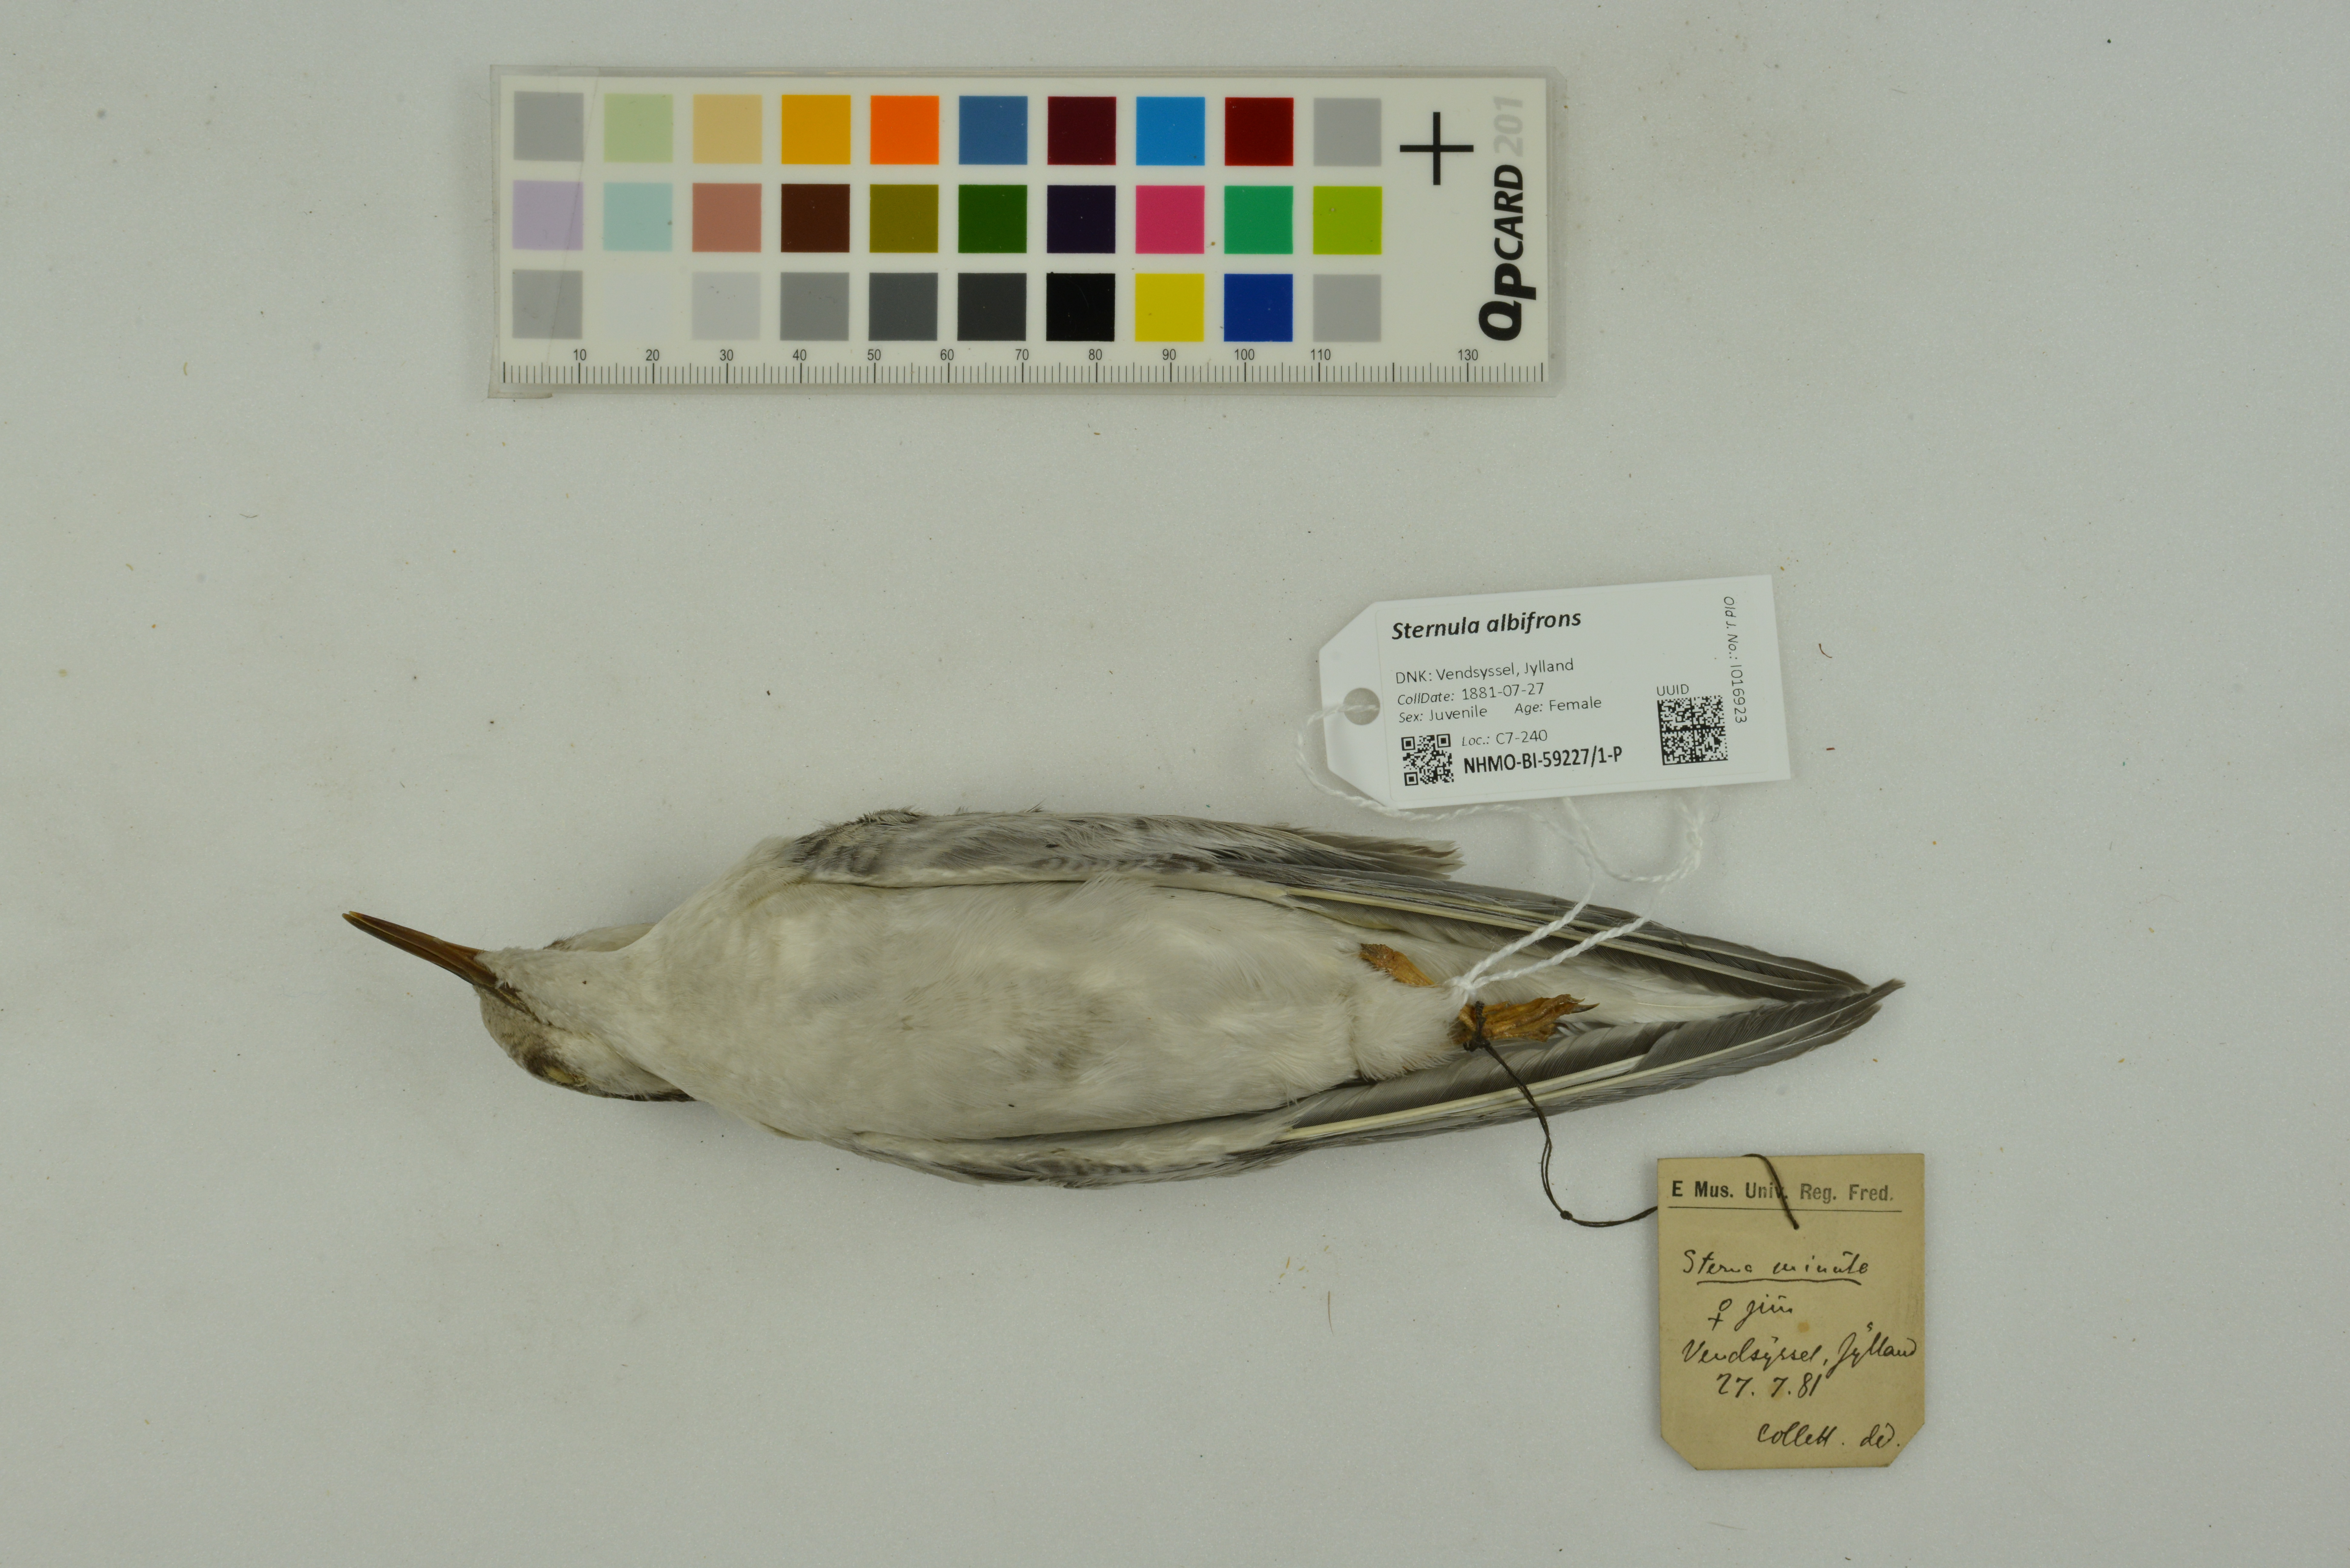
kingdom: Animalia
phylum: Chordata
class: Aves
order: Charadriiformes
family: Laridae
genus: Sternula
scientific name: Sternula albifrons
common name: Little tern
